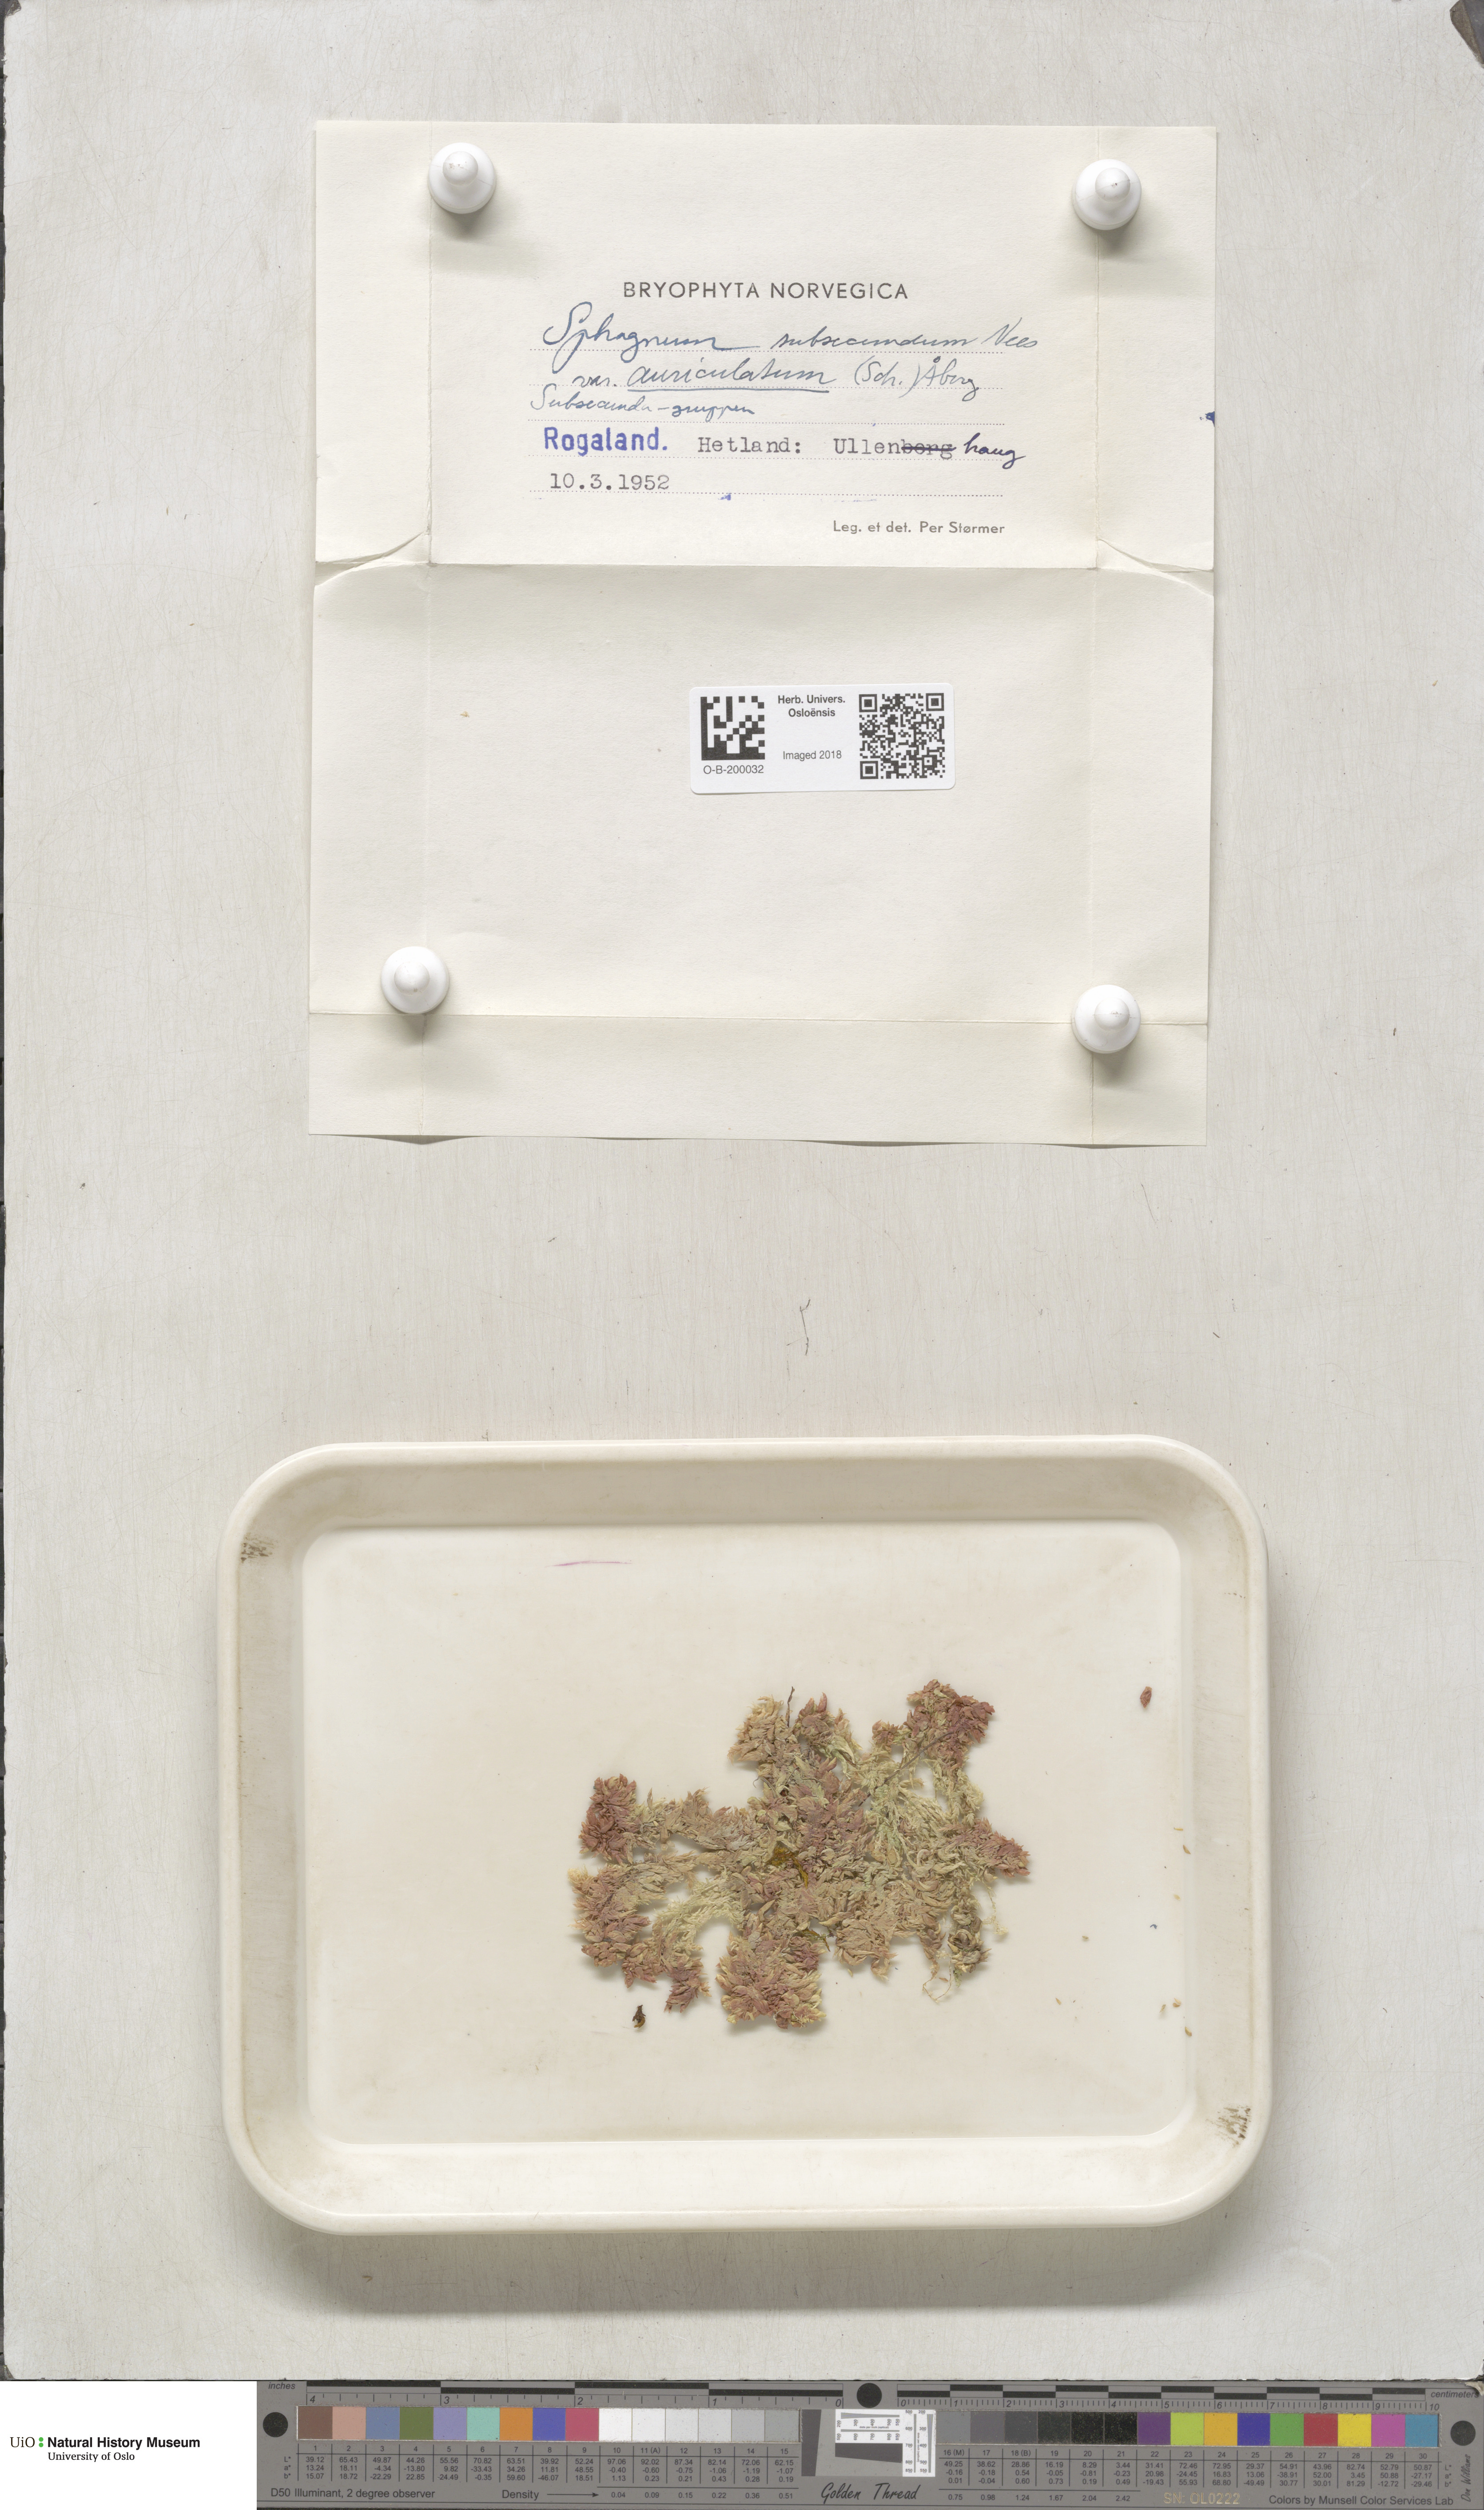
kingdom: Plantae
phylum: Bryophyta
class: Sphagnopsida
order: Sphagnales
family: Sphagnaceae
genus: Sphagnum
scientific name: Sphagnum denticulatum
